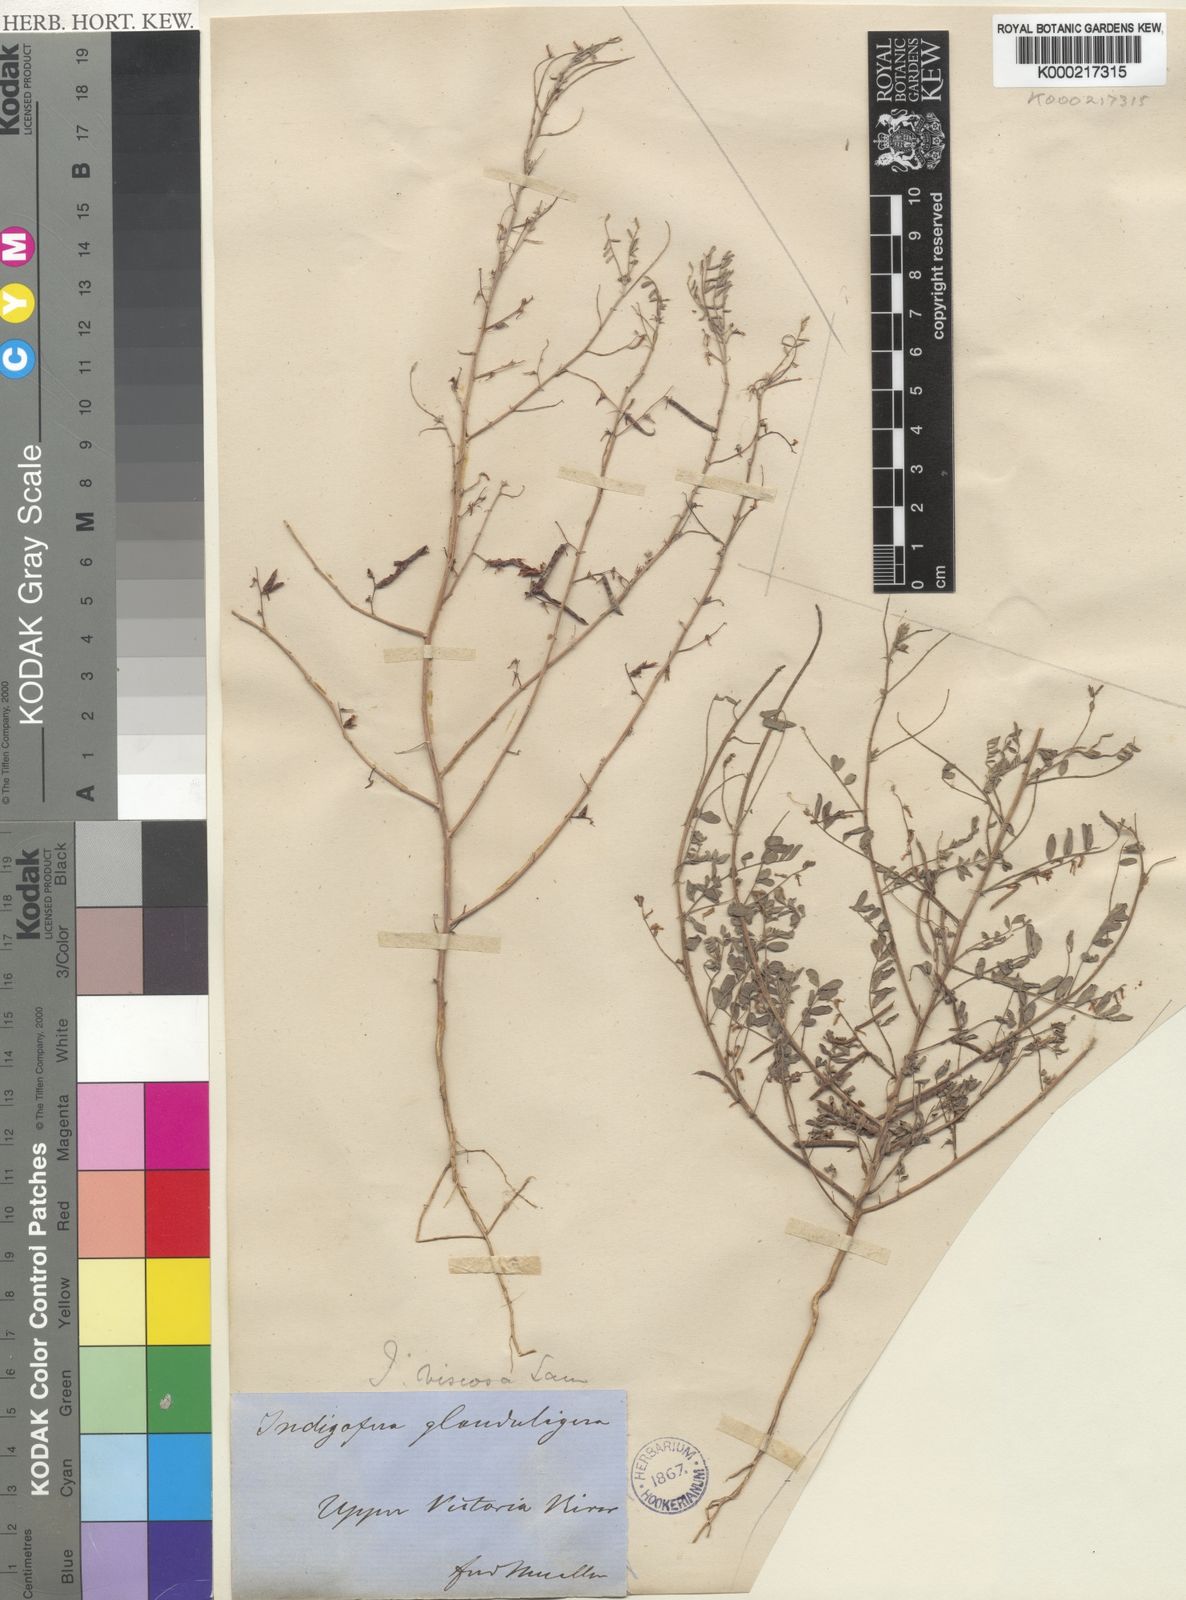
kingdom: Plantae
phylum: Tracheophyta
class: Magnoliopsida
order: Fabales
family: Fabaceae
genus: Indigofera
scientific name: Indigofera colutea
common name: Rusty indigo
